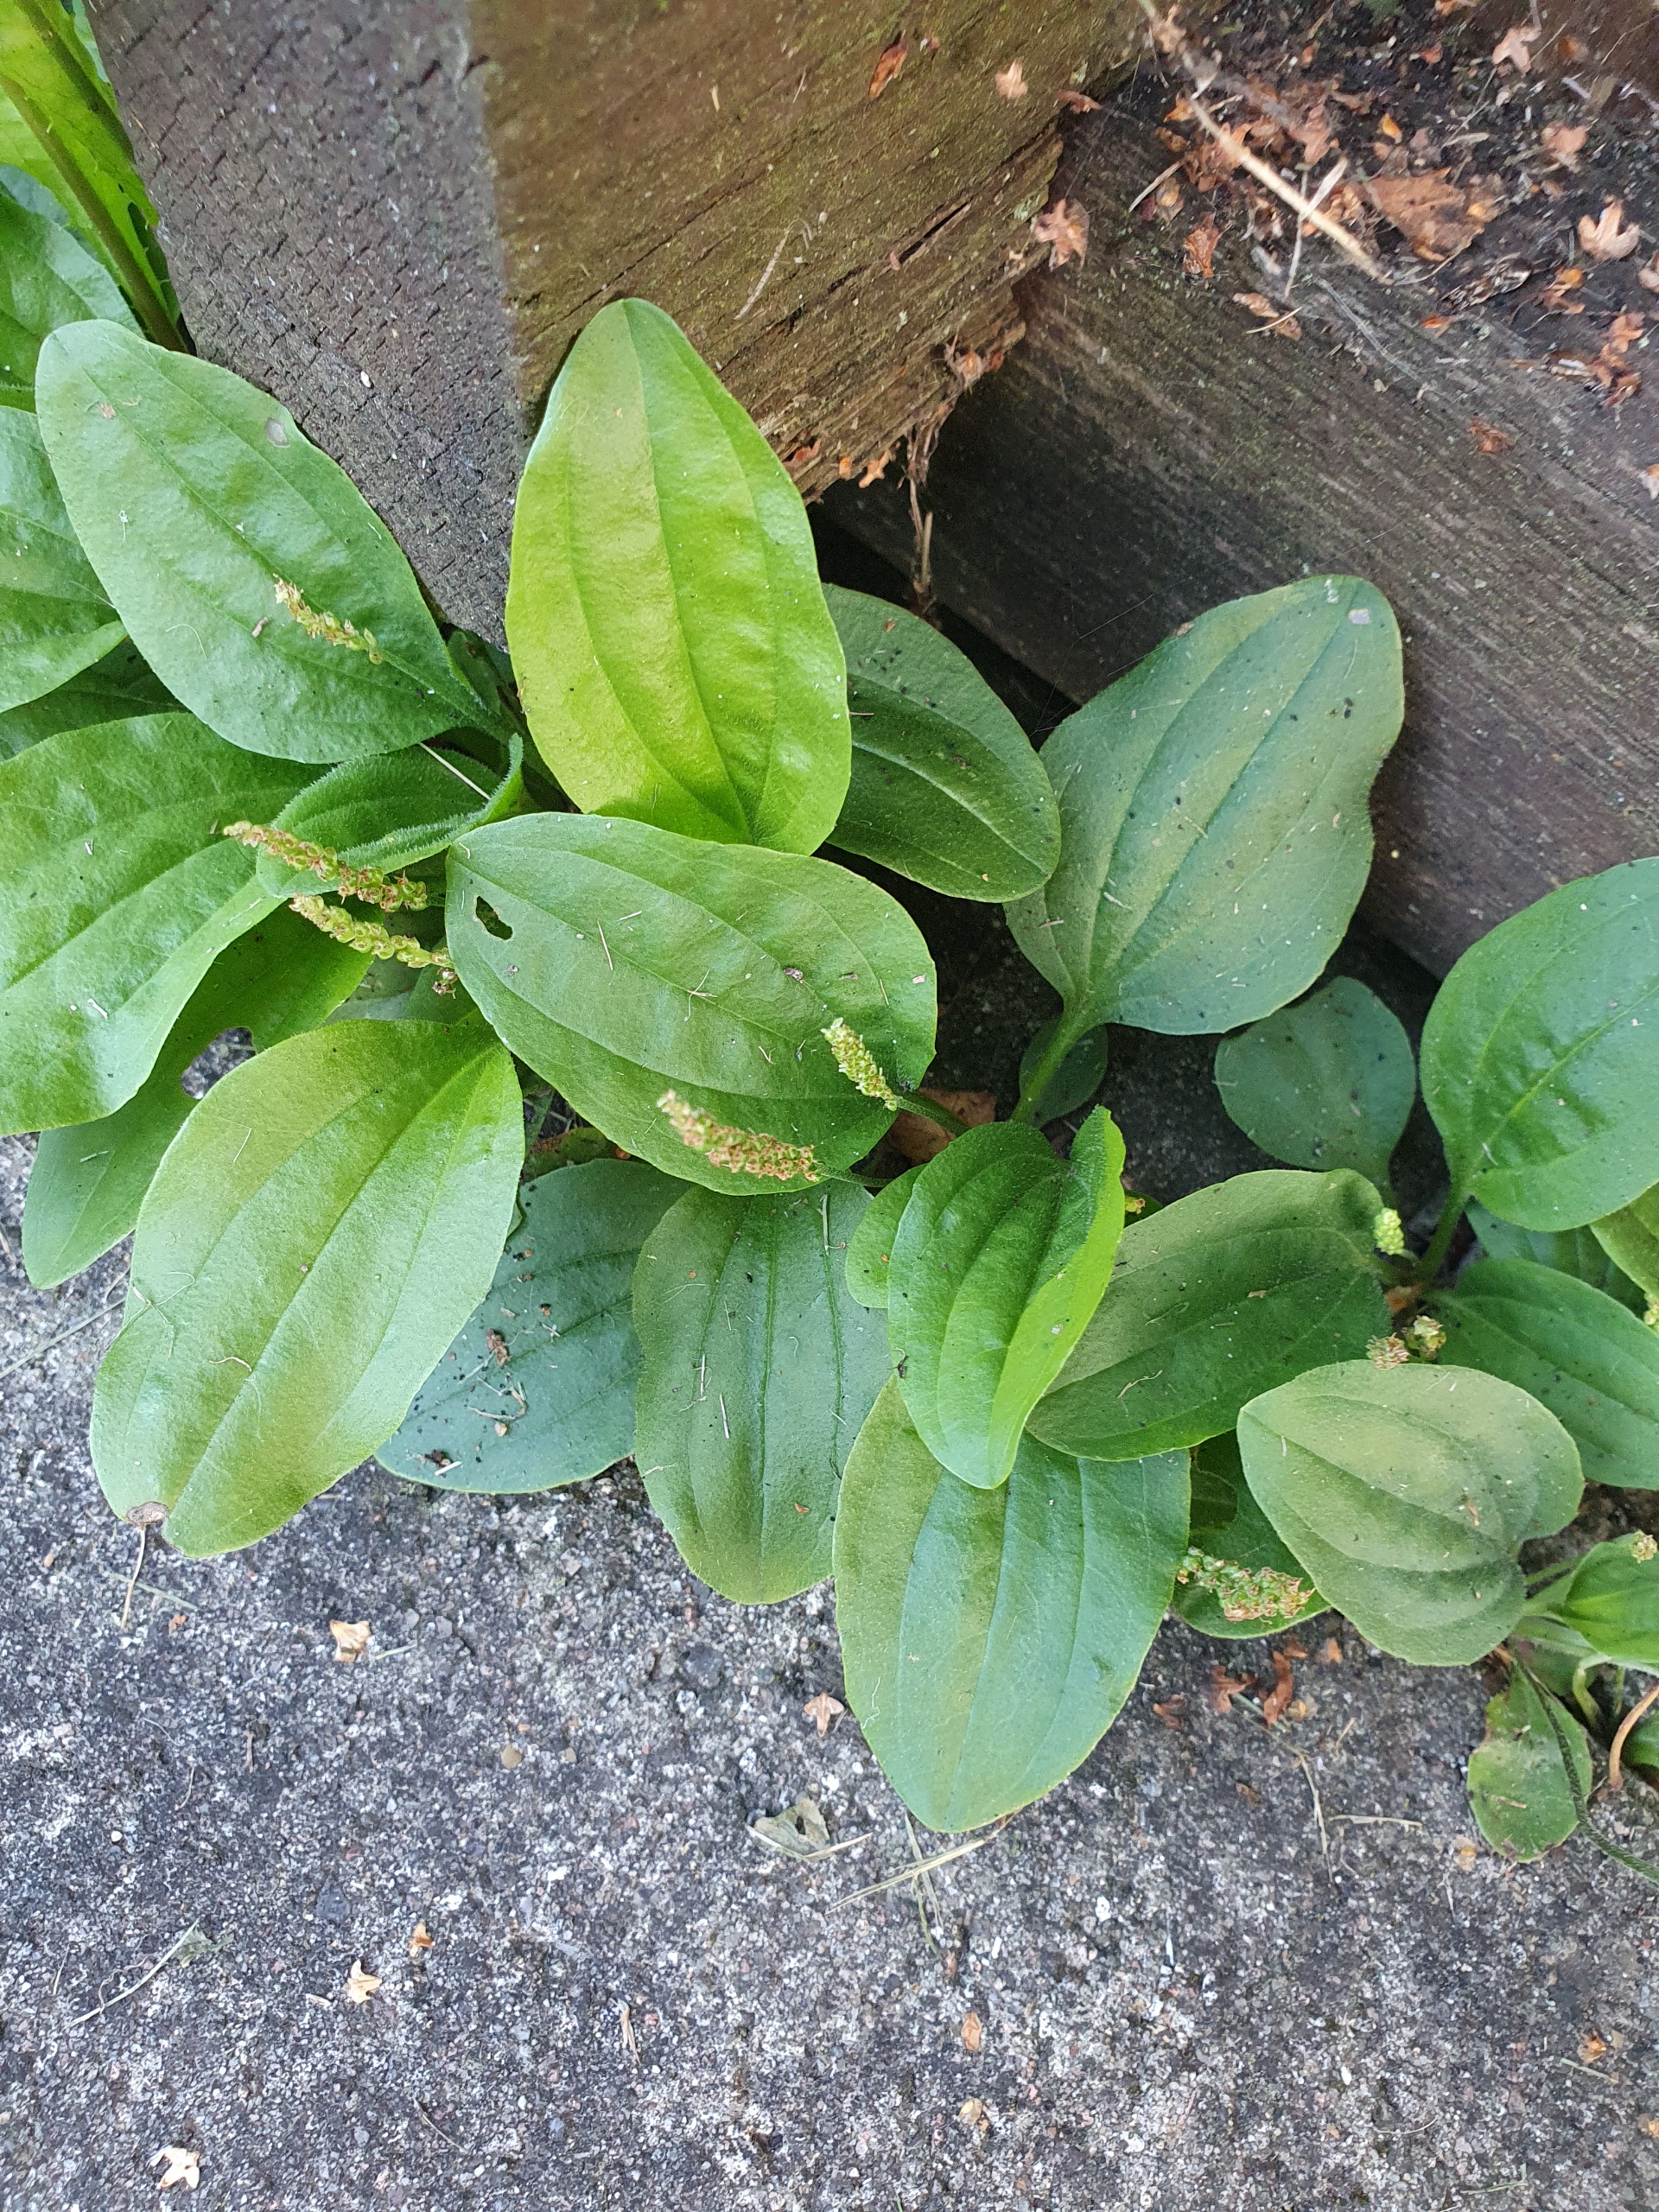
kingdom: Plantae
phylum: Tracheophyta
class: Magnoliopsida
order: Lamiales
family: Plantaginaceae
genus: Plantago
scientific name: Plantago major
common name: Glat vejbred
